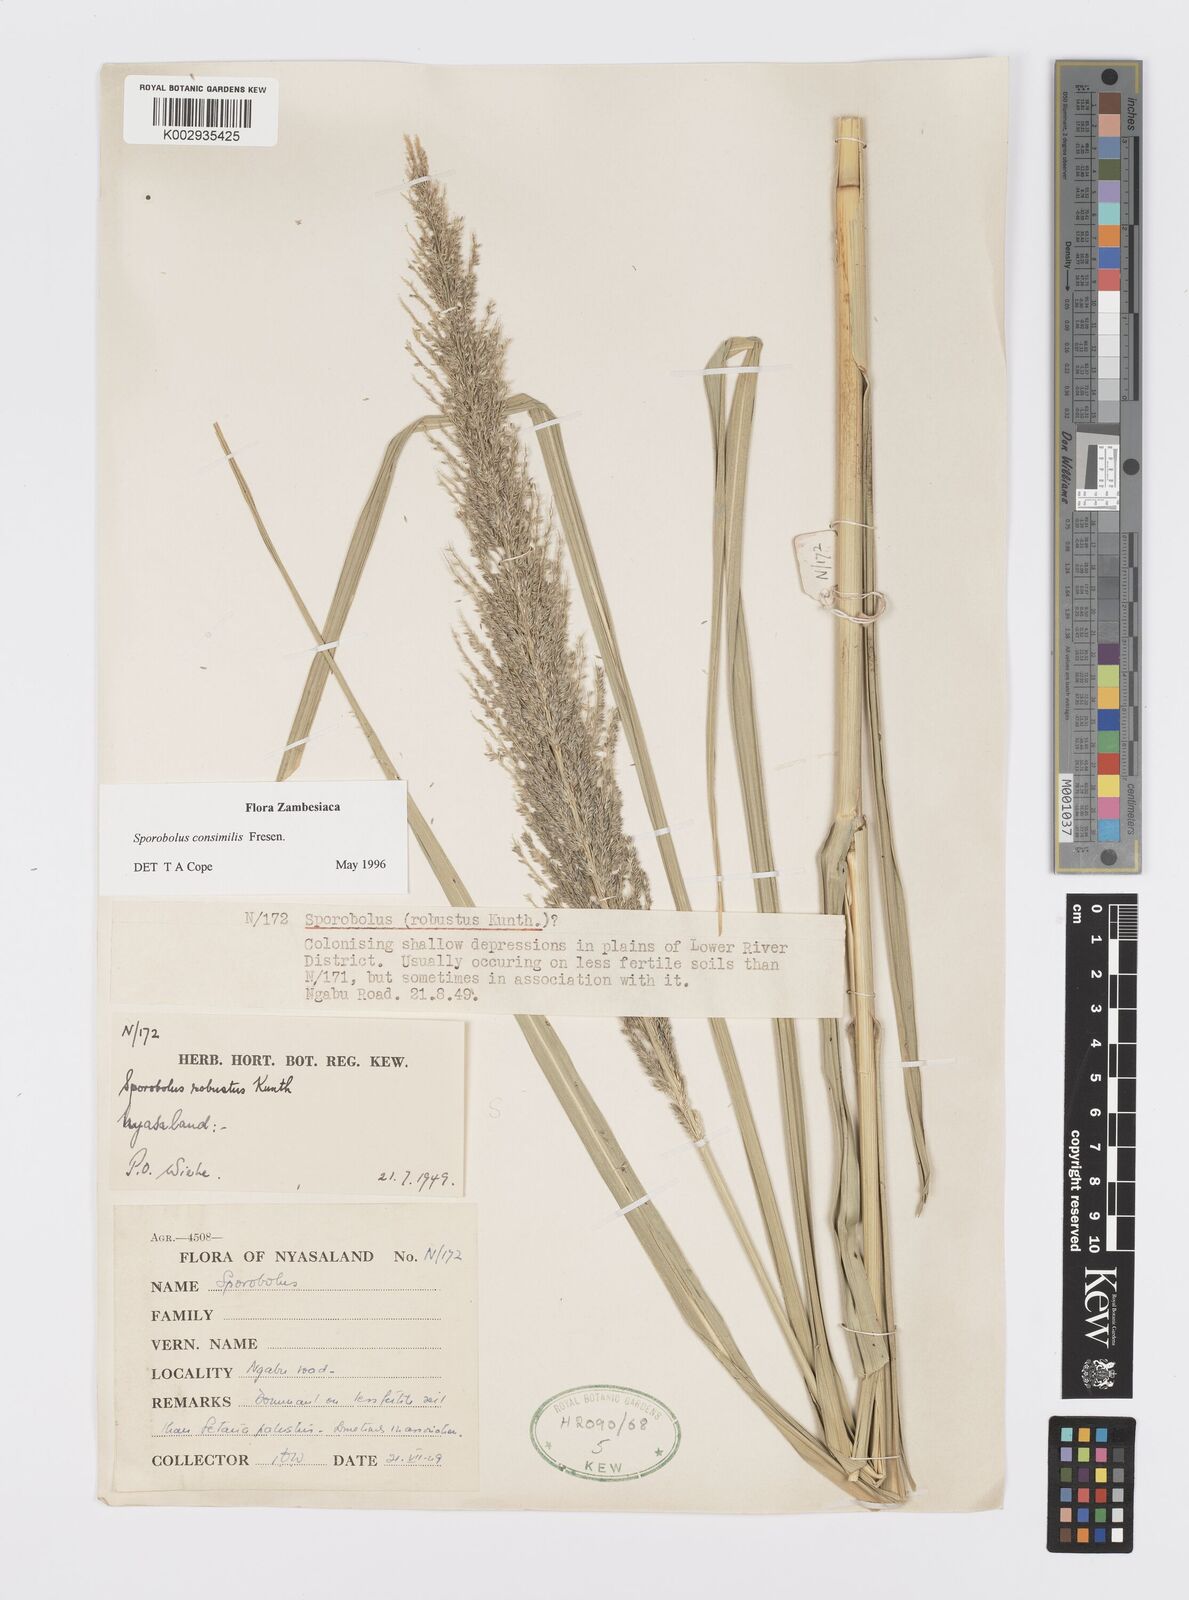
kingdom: Plantae
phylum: Tracheophyta
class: Liliopsida
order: Poales
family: Poaceae
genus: Sporobolus
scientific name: Sporobolus consimilis
